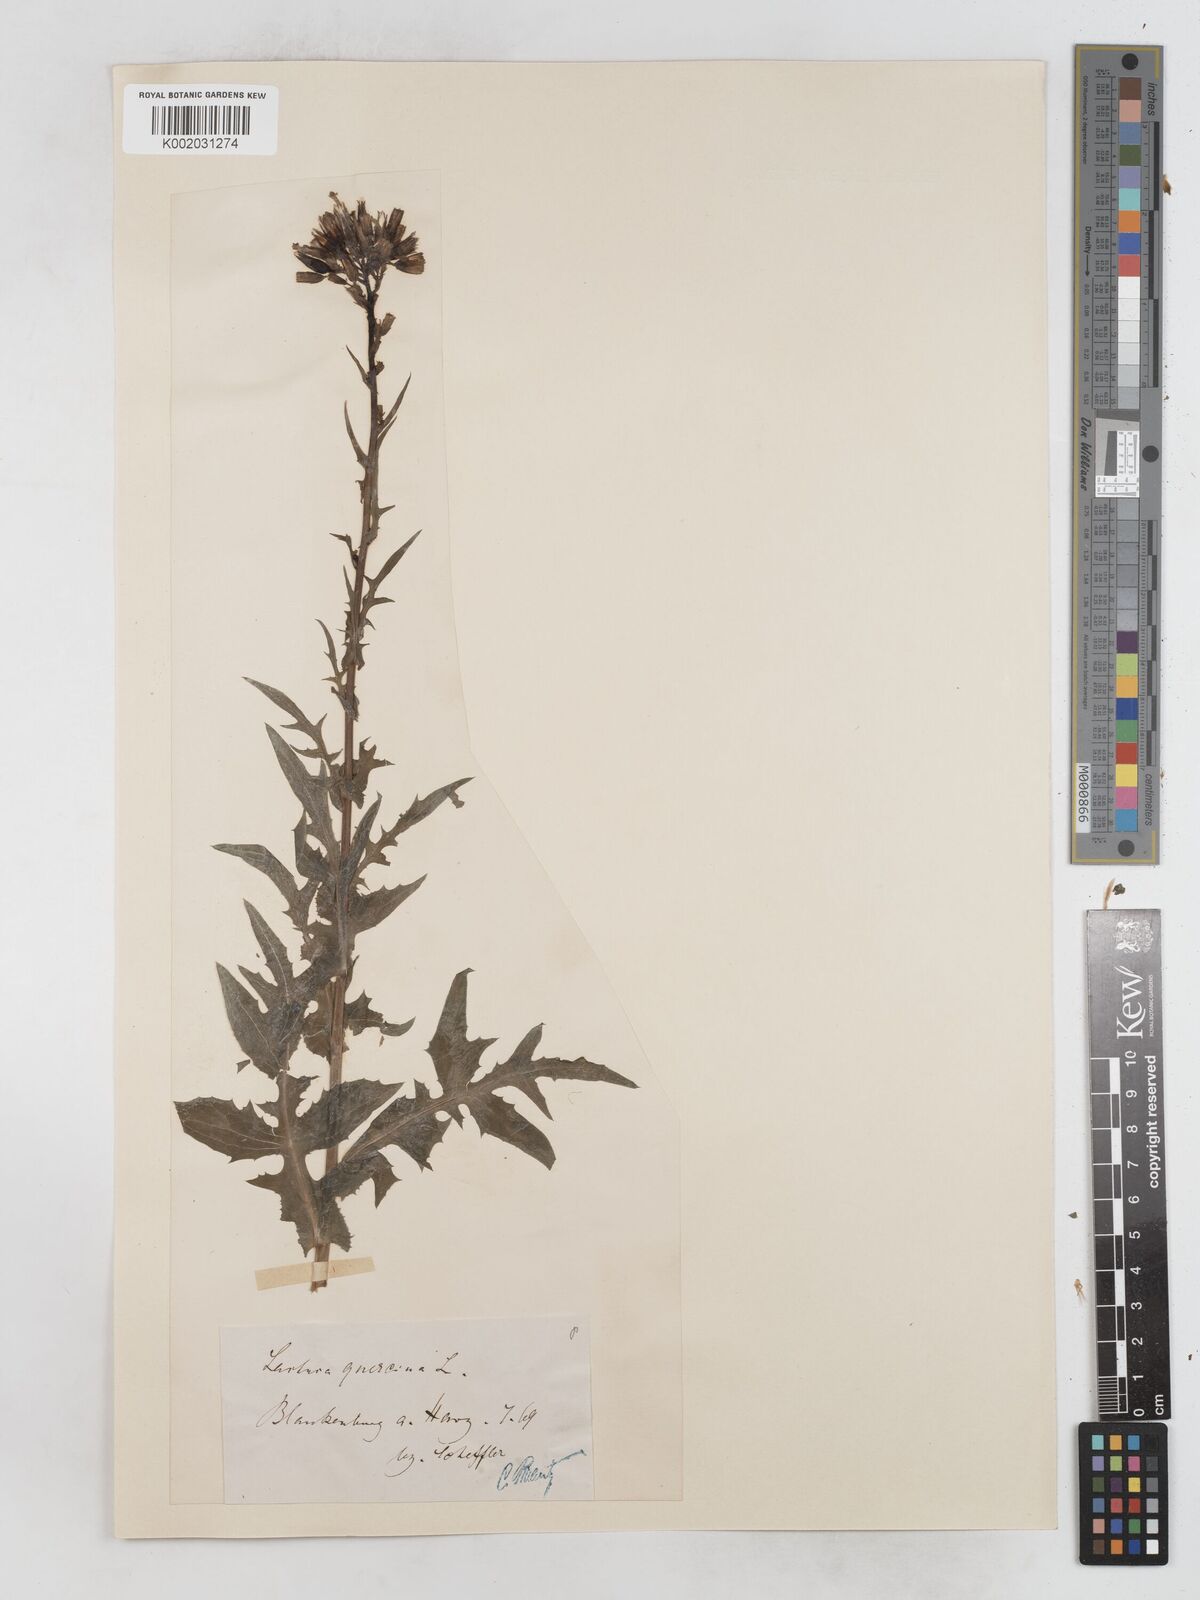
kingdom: Plantae
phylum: Tracheophyta
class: Magnoliopsida
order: Asterales
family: Asteraceae
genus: Lactuca
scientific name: Lactuca quercina
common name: Wild lettuce
